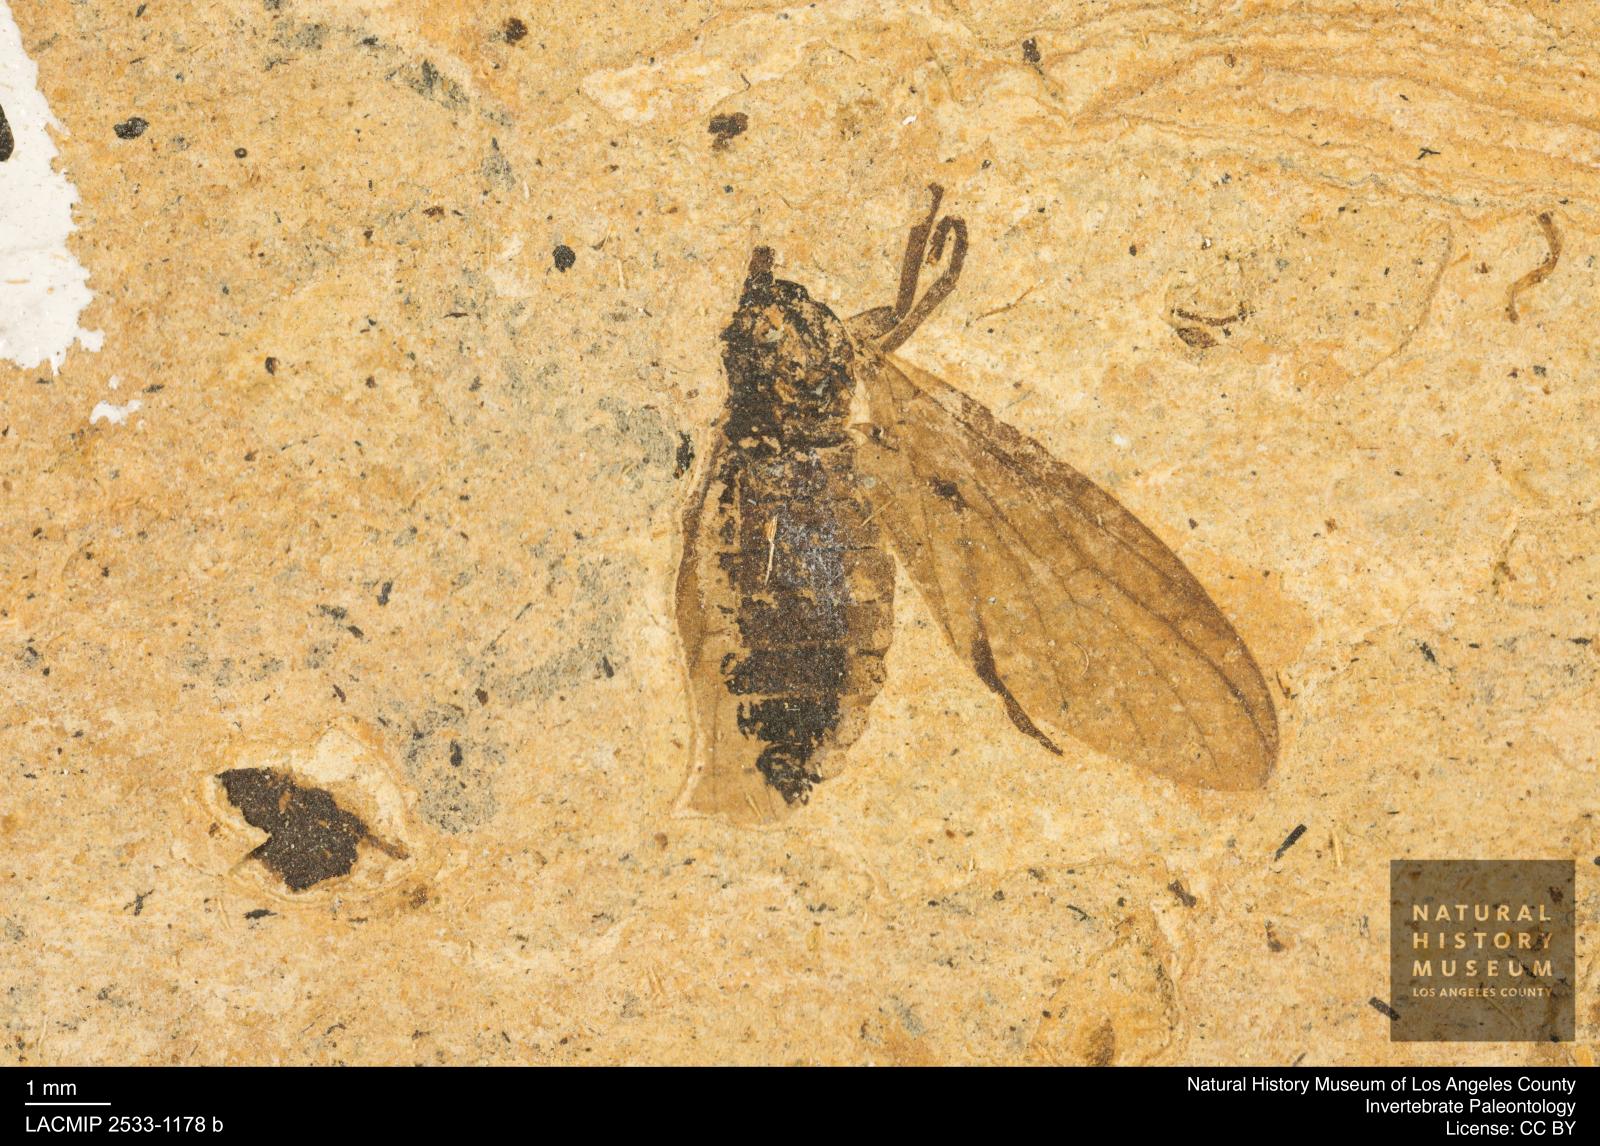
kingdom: Animalia
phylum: Arthropoda
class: Insecta
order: Diptera
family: Bibionidae
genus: Plecia
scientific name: Plecia stygia
